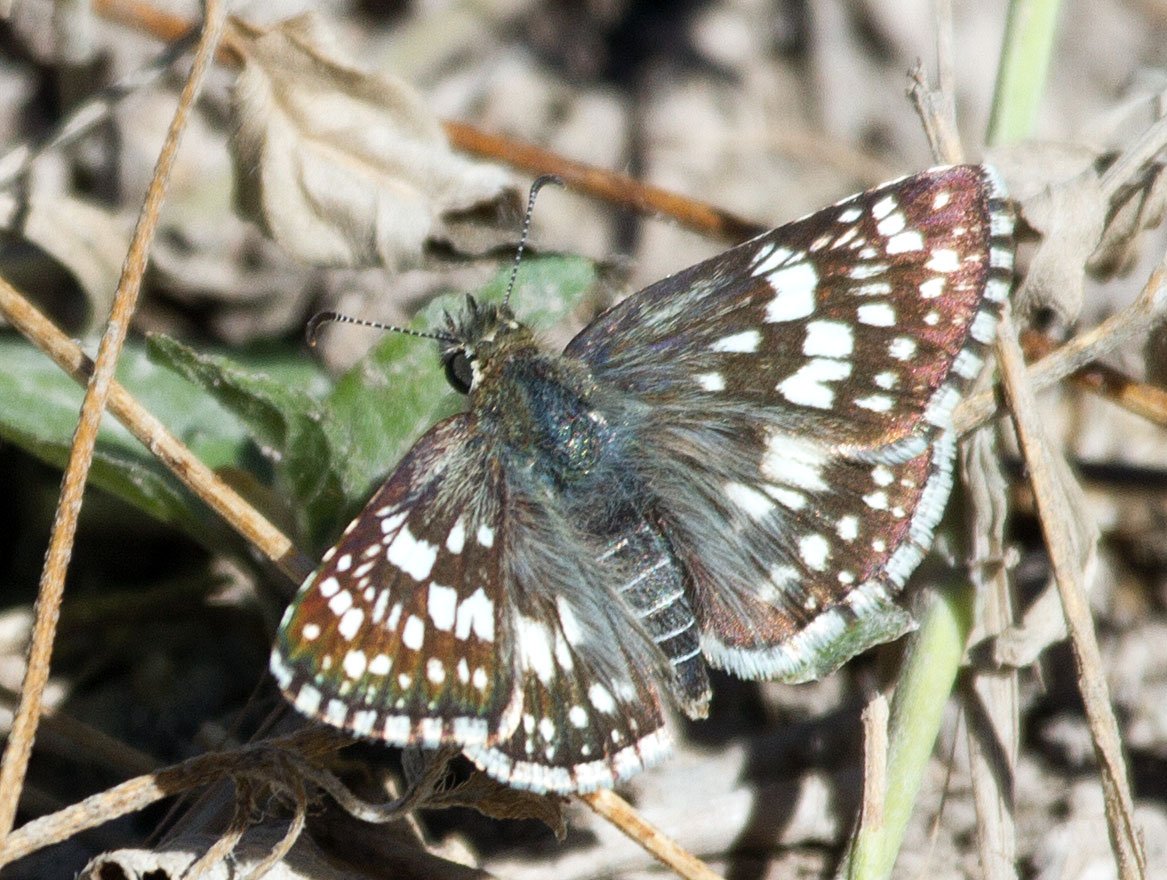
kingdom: Animalia
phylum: Arthropoda
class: Insecta
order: Lepidoptera
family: Hesperiidae
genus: Pyrgus
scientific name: Pyrgus communis
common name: Common Checkered-Skipper
